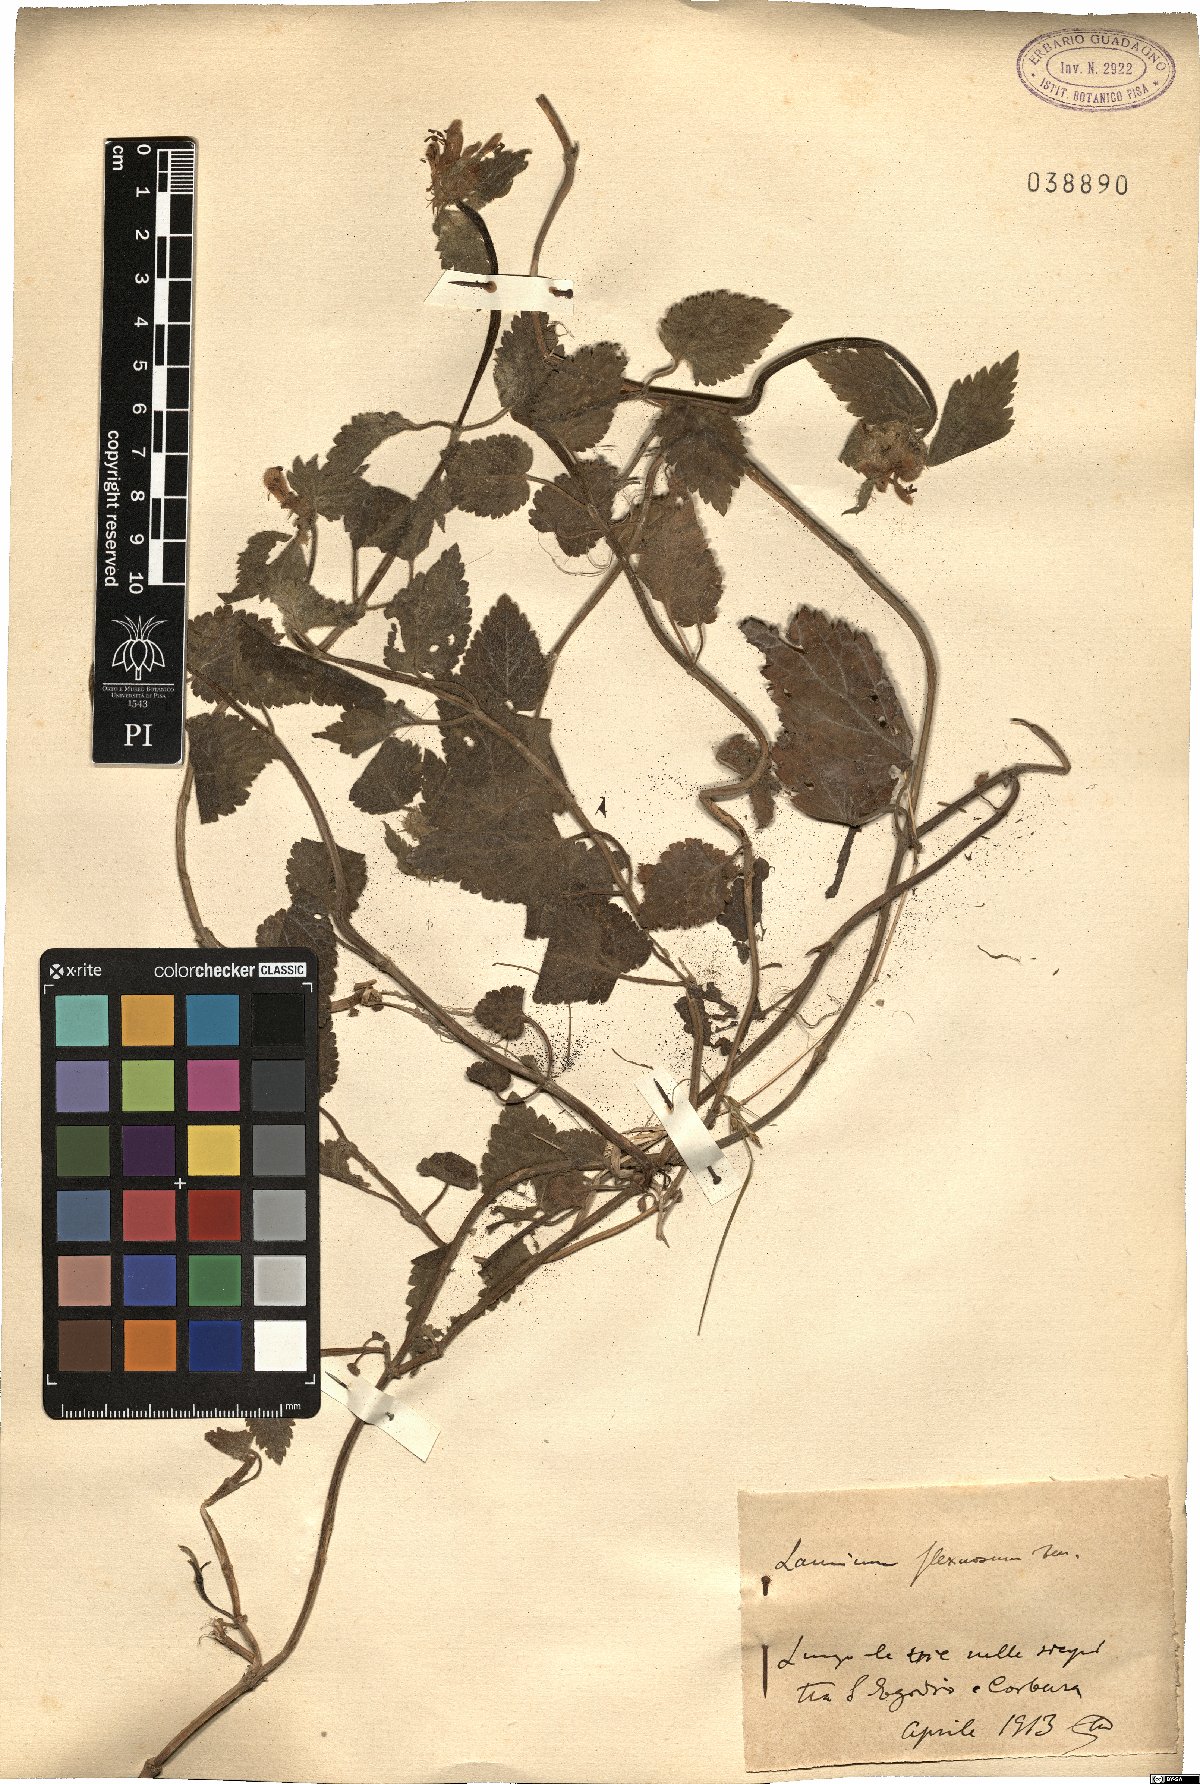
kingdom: Plantae
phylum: Tracheophyta
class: Magnoliopsida
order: Lamiales
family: Lamiaceae
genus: Lamium
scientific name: Lamium flexuosum
